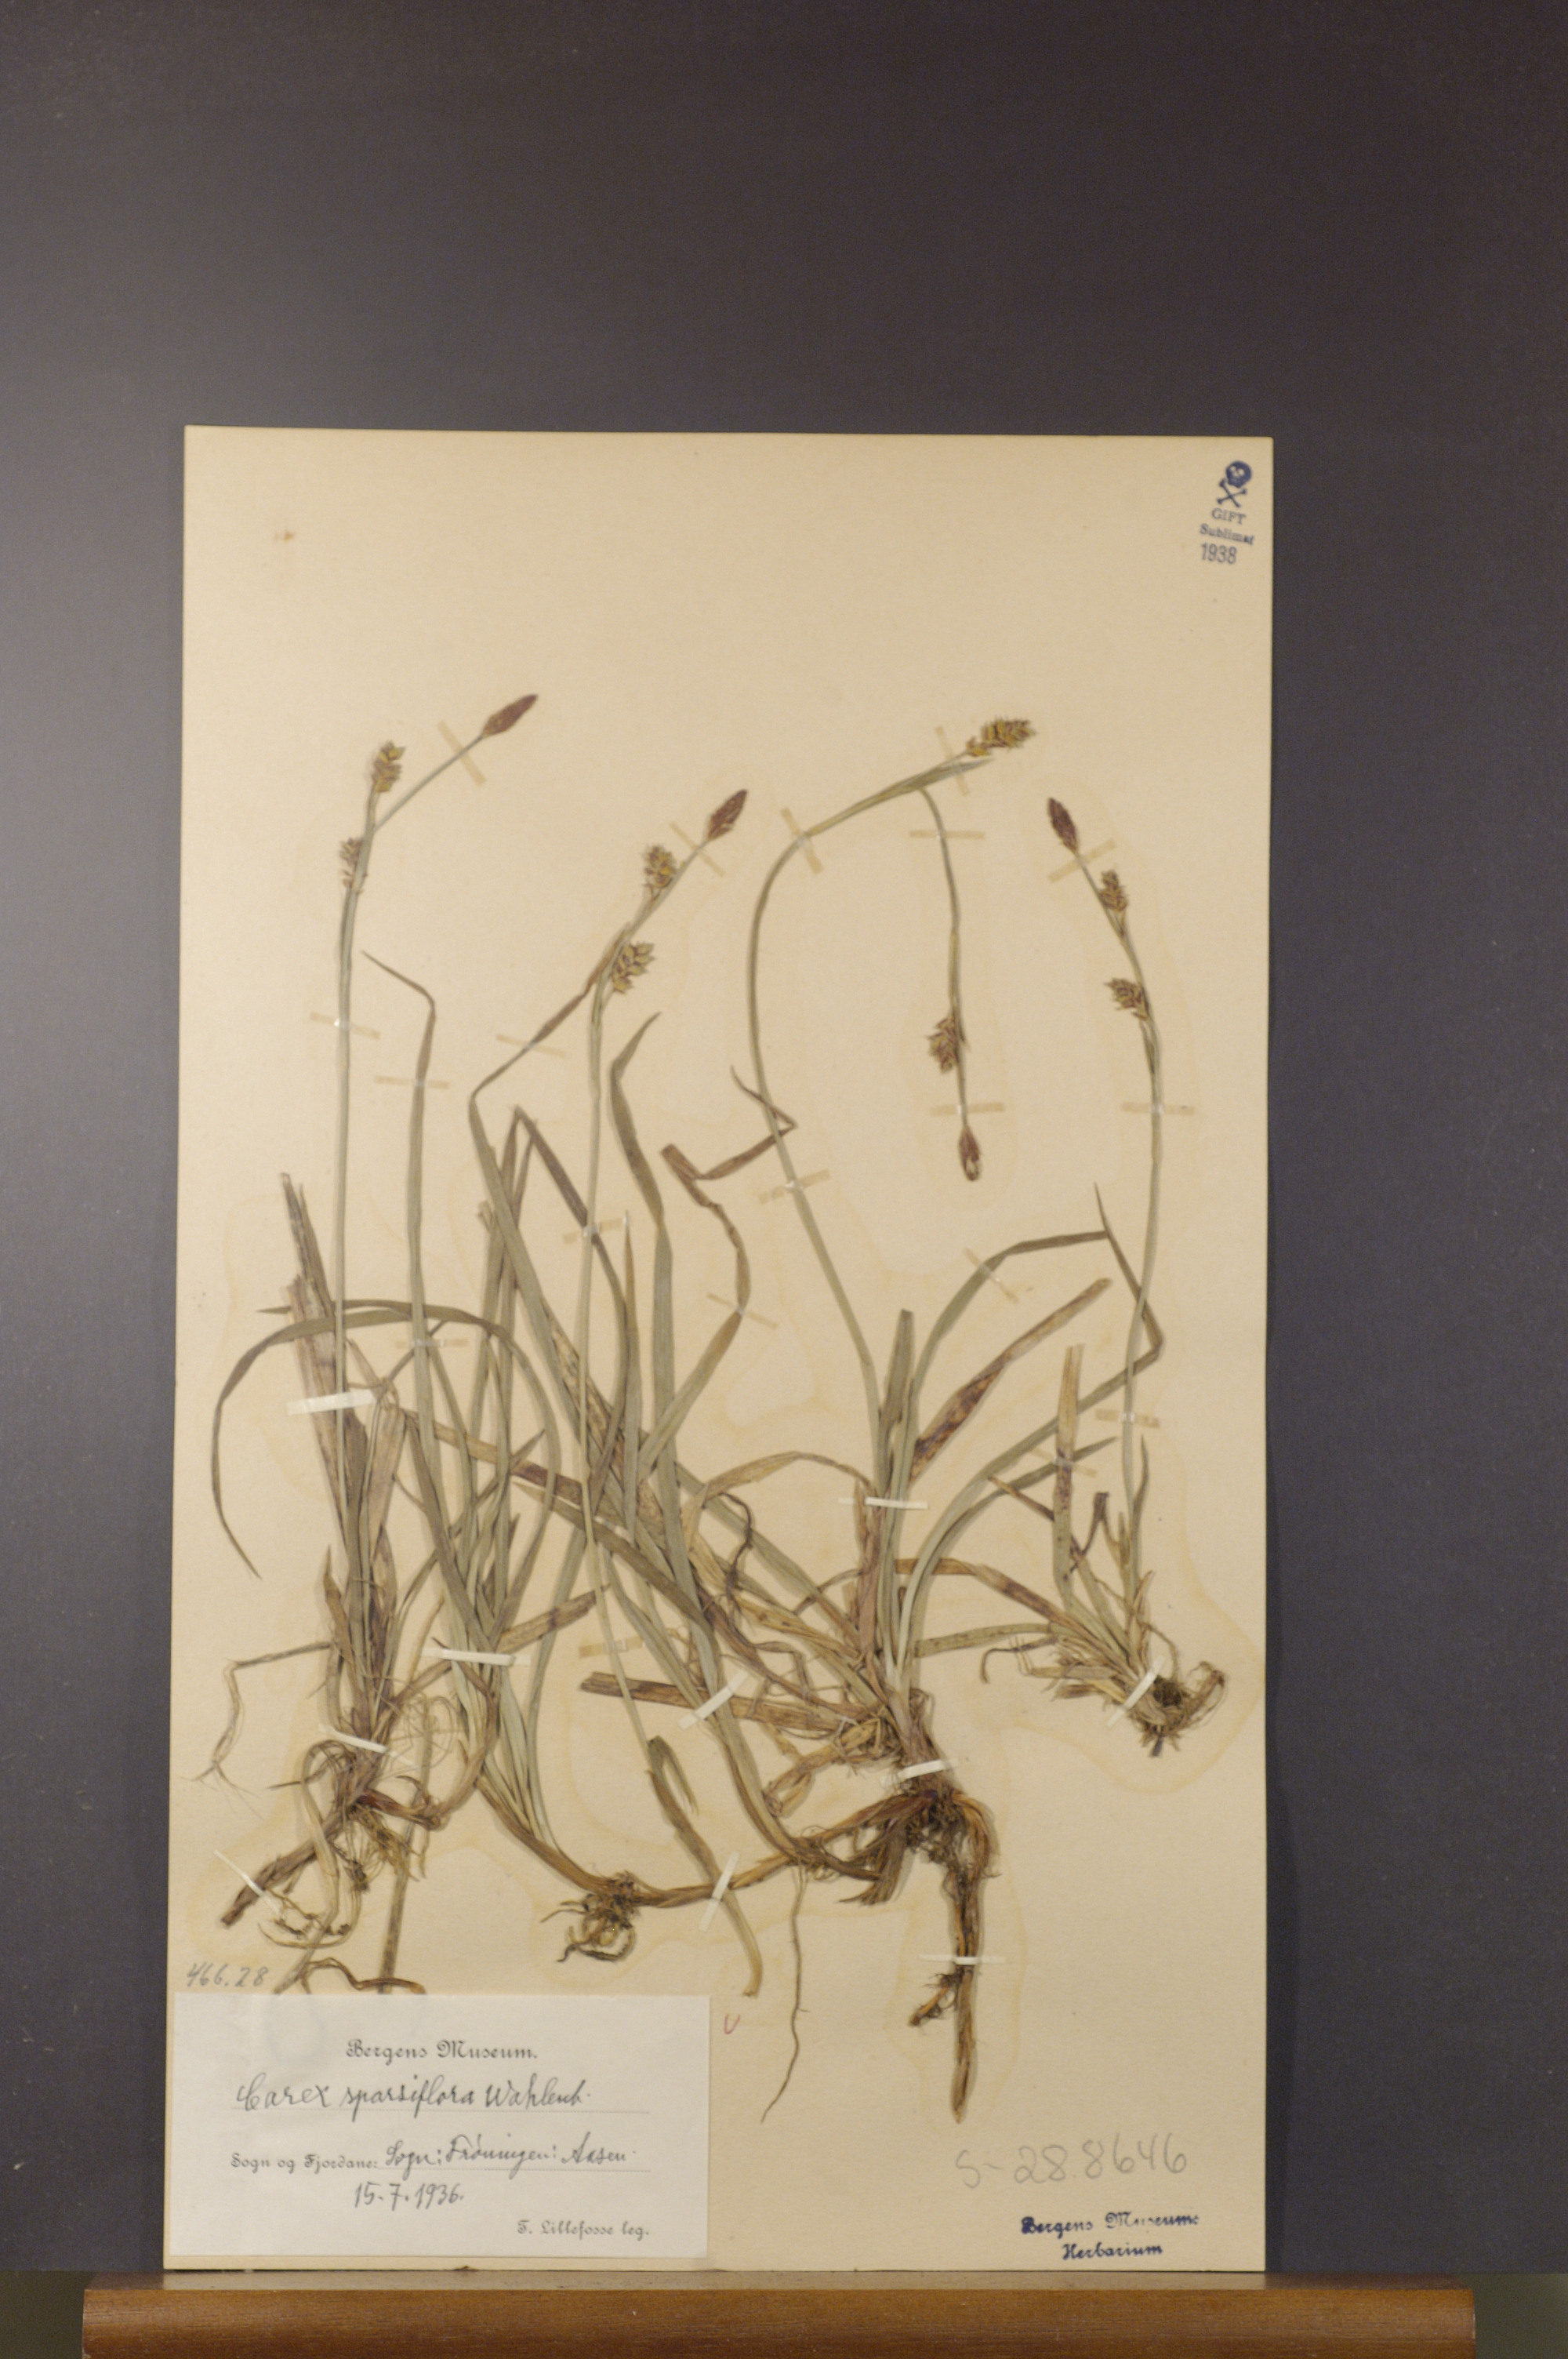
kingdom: Plantae
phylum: Tracheophyta
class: Liliopsida
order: Poales
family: Cyperaceae
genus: Carex
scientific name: Carex vaginata
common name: Sheathed sedge
